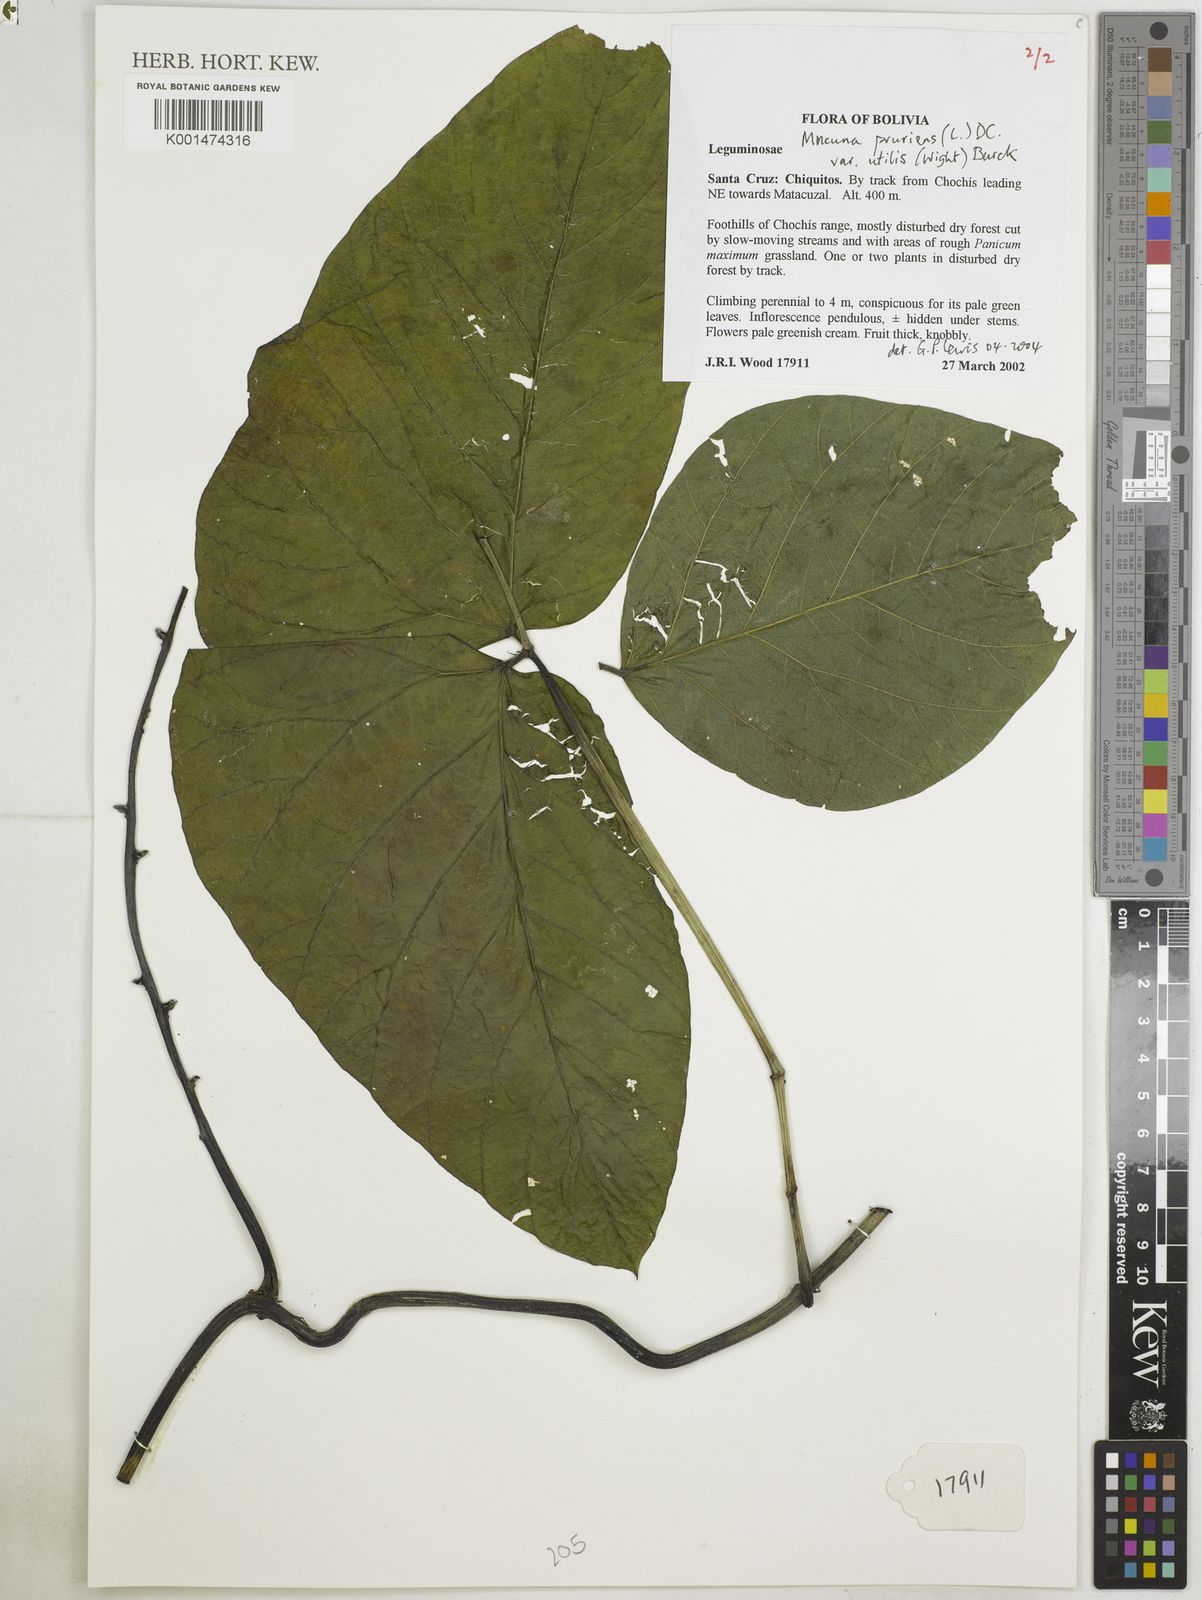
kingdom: Plantae
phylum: Tracheophyta
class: Magnoliopsida
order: Fabales
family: Fabaceae
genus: Mucuna
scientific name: Mucuna pruriens
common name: Cow-itch
